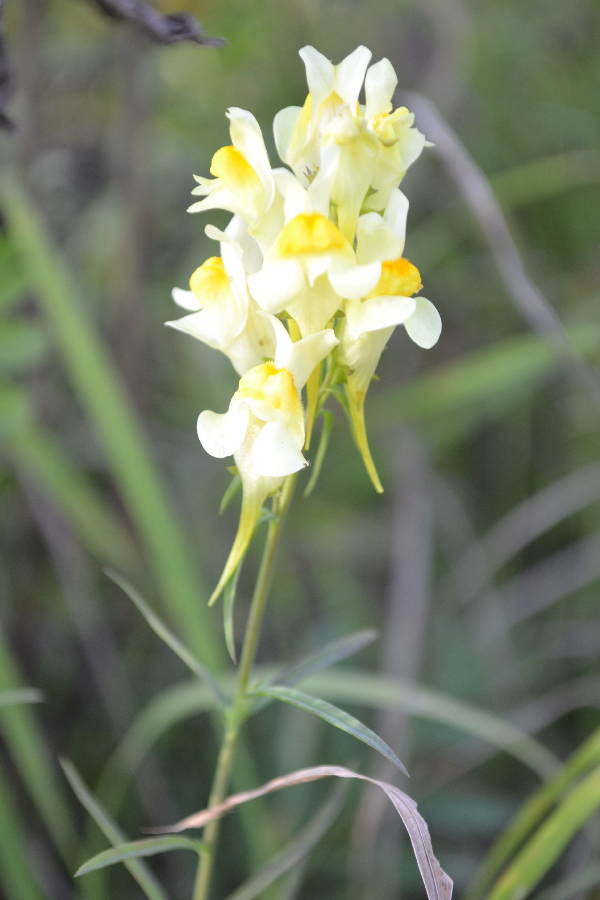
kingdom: Plantae
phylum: Tracheophyta
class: Magnoliopsida
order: Lamiales
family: Plantaginaceae
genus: Linaria
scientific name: Linaria vulgaris
